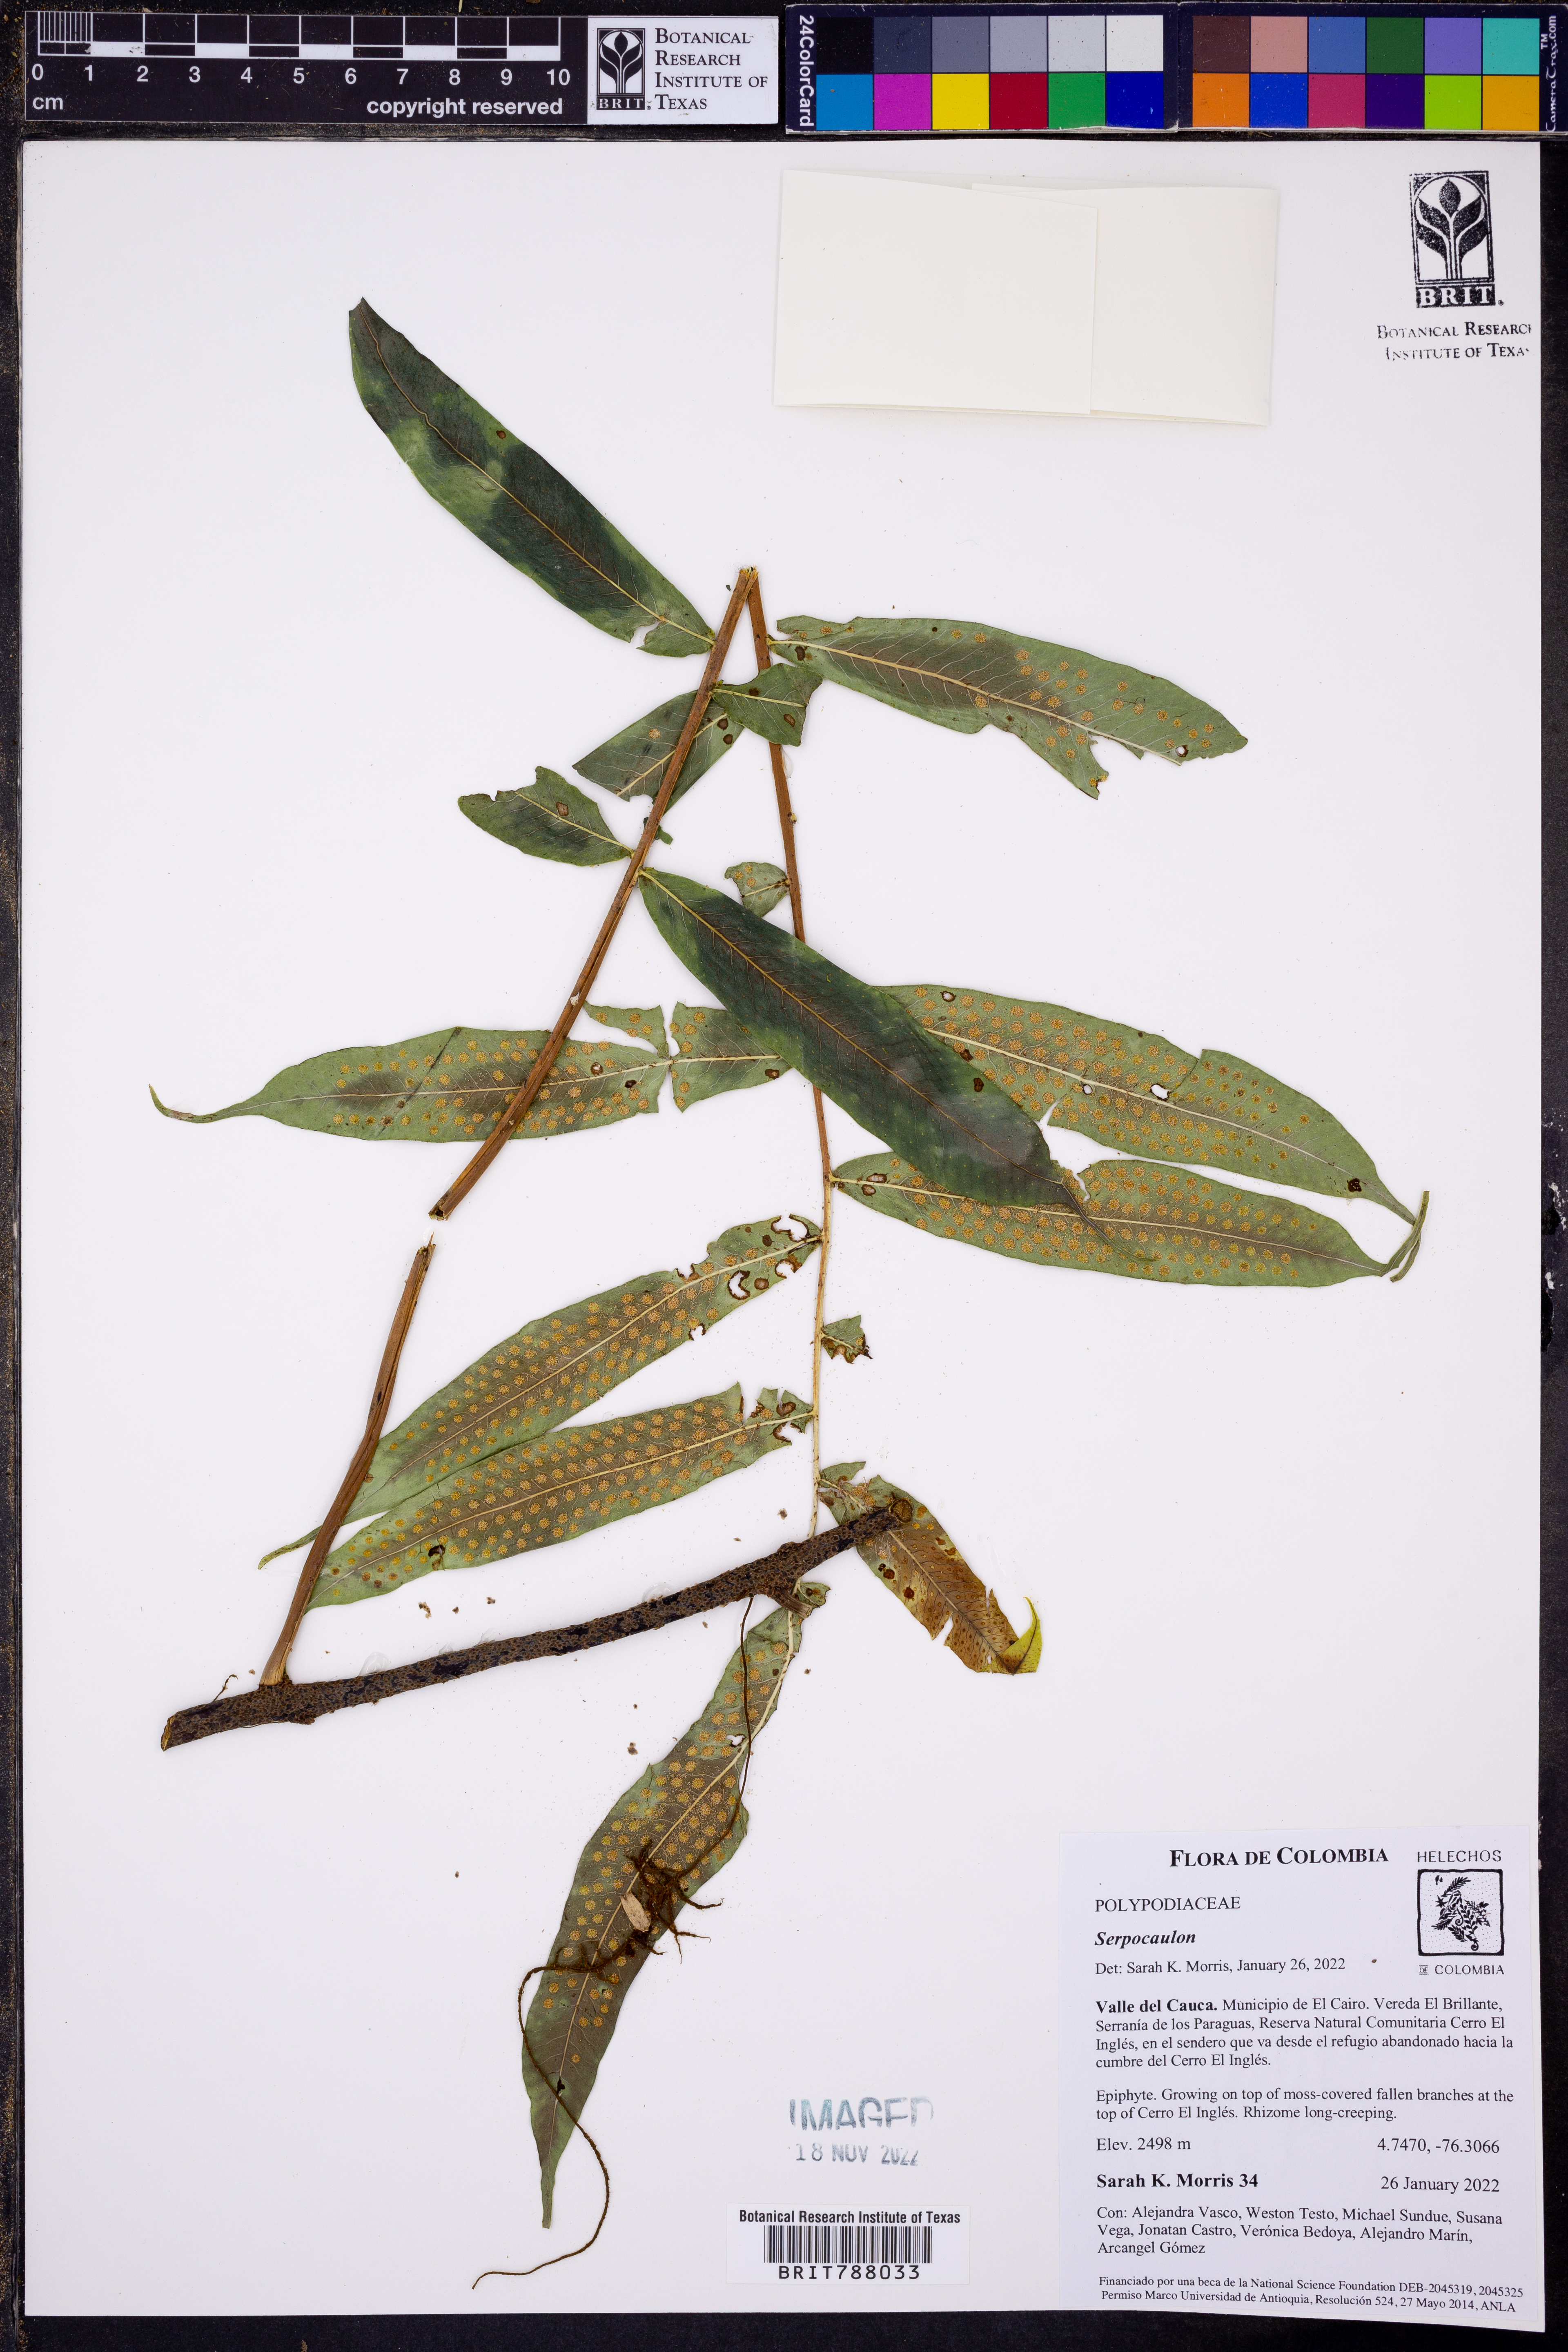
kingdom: Plantae
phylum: Tracheophyta
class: Polypodiopsida
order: Polypodiales
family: Polypodiaceae
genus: Serpocaulon
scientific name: Serpocaulon
